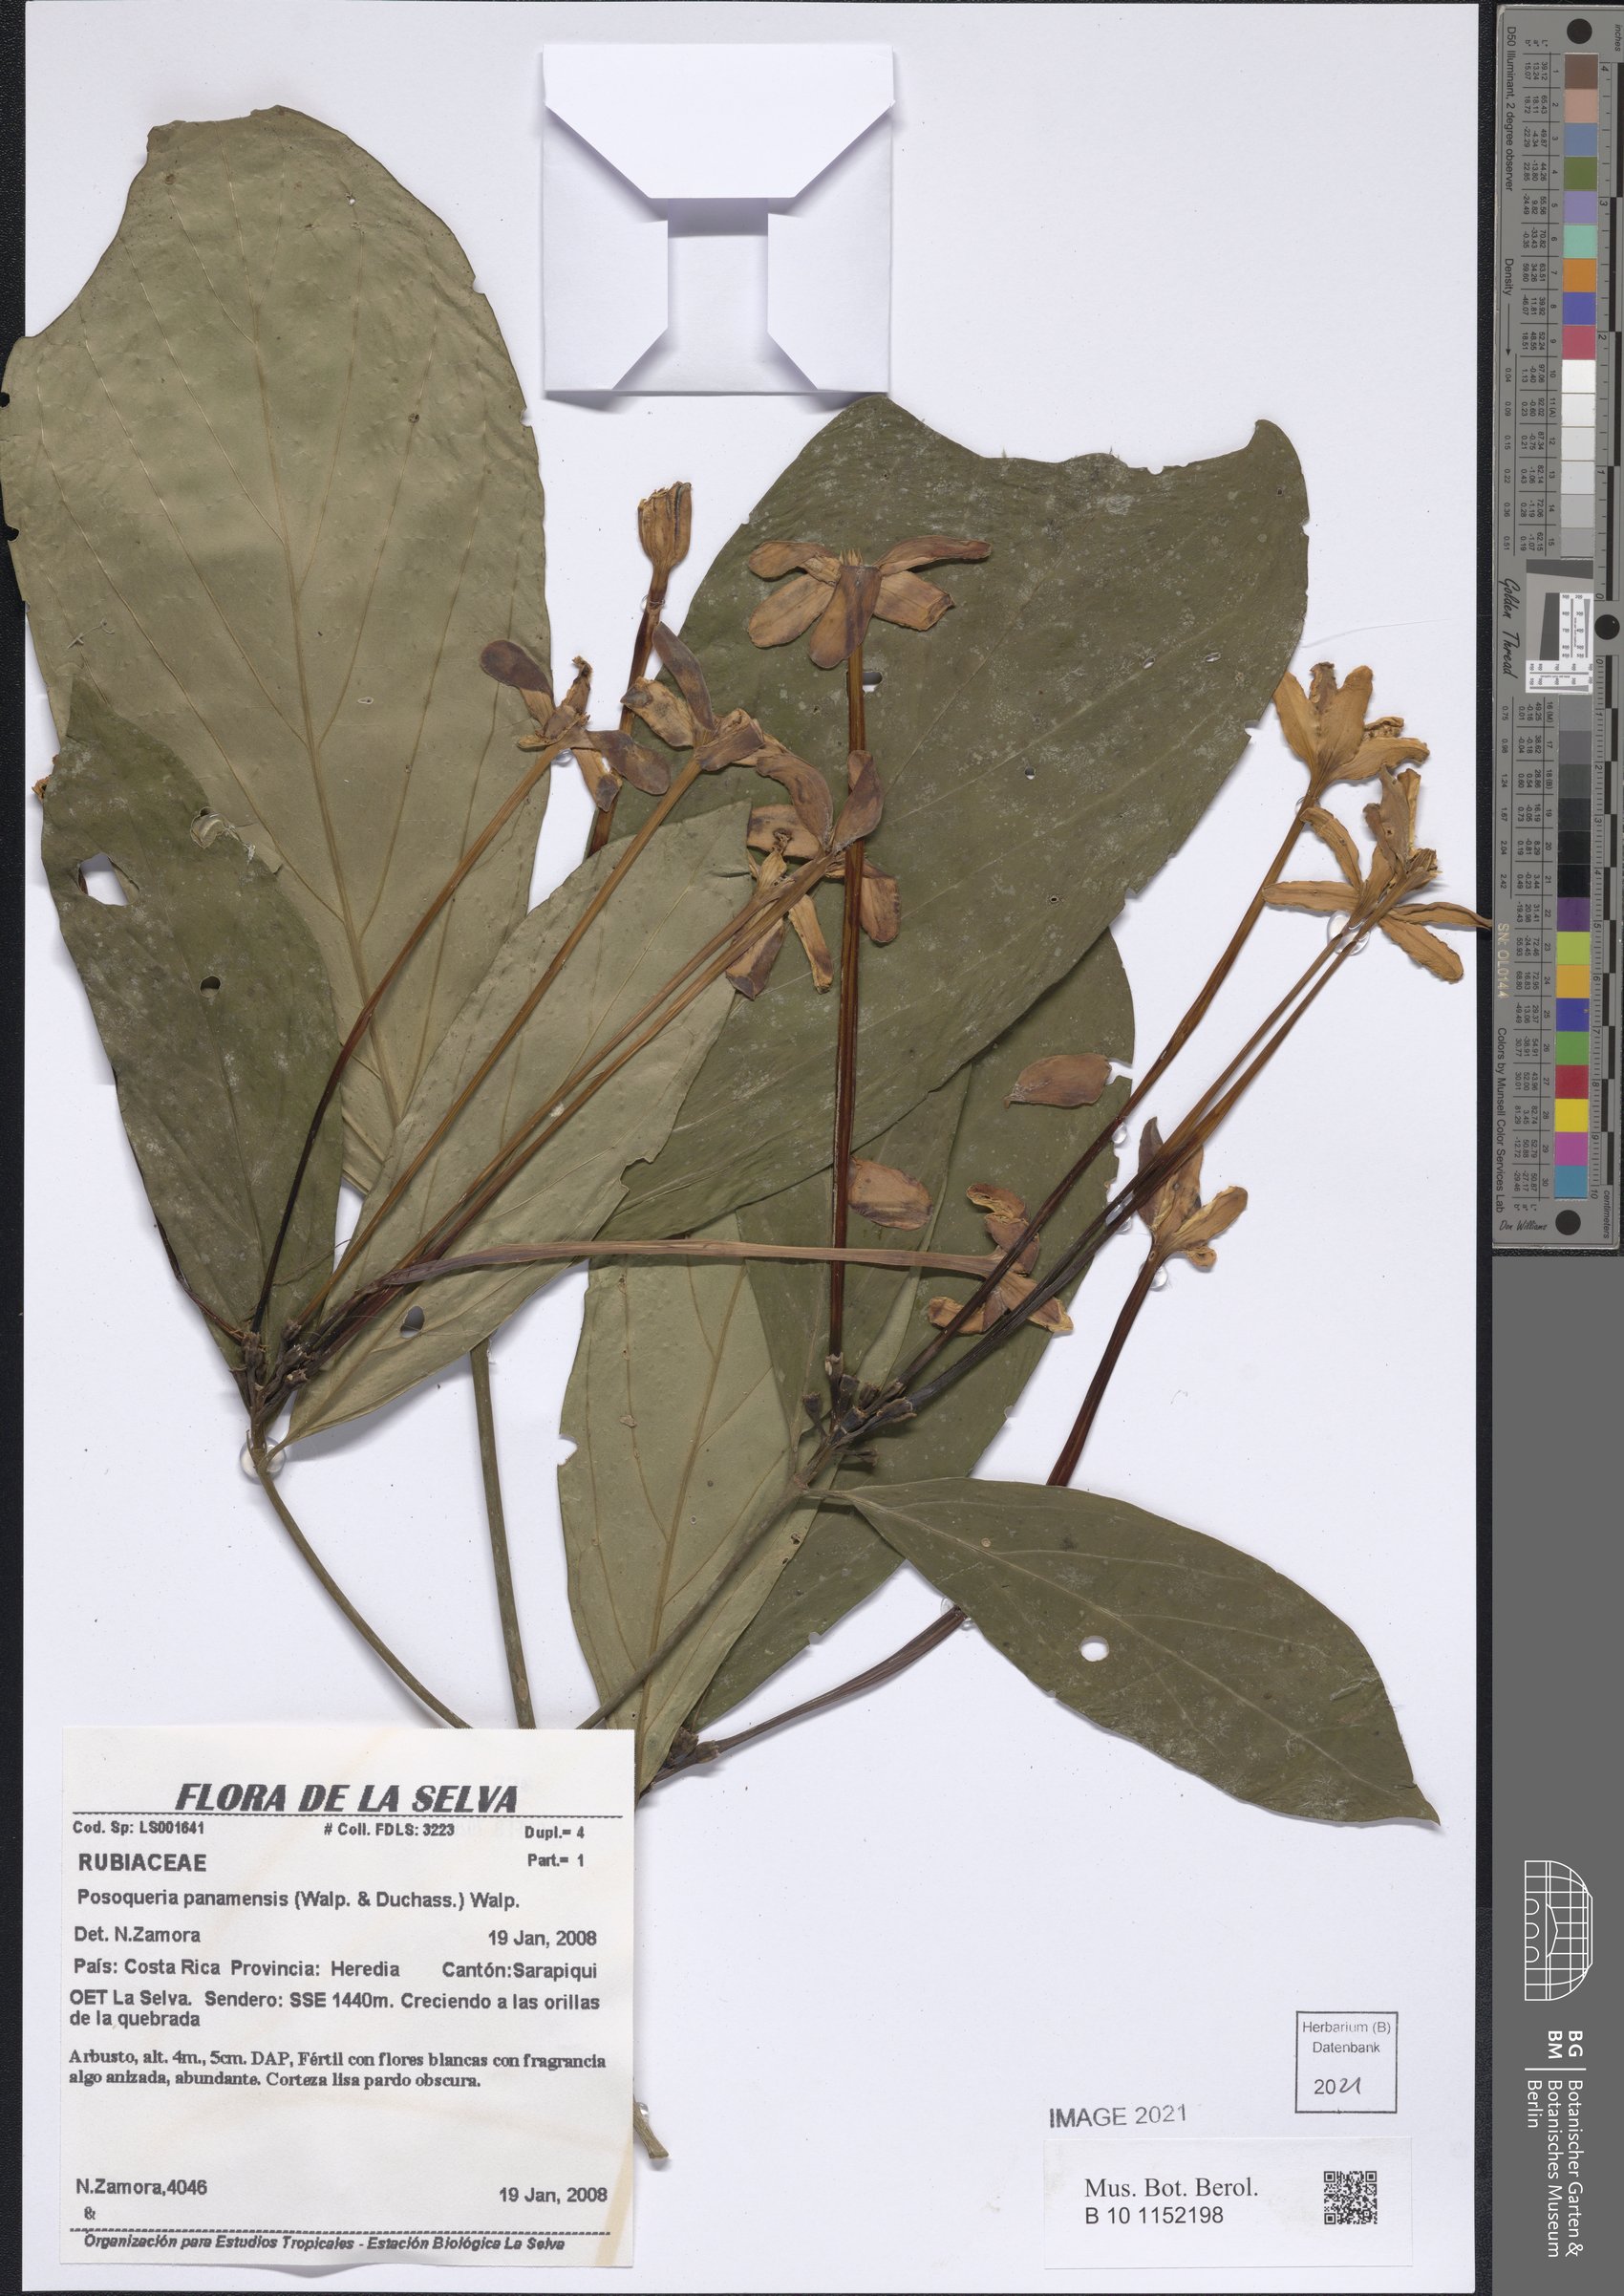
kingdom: Plantae
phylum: Tracheophyta
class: Magnoliopsida
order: Gentianales
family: Rubiaceae
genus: Posoqueria
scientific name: Posoqueria grandifructa
